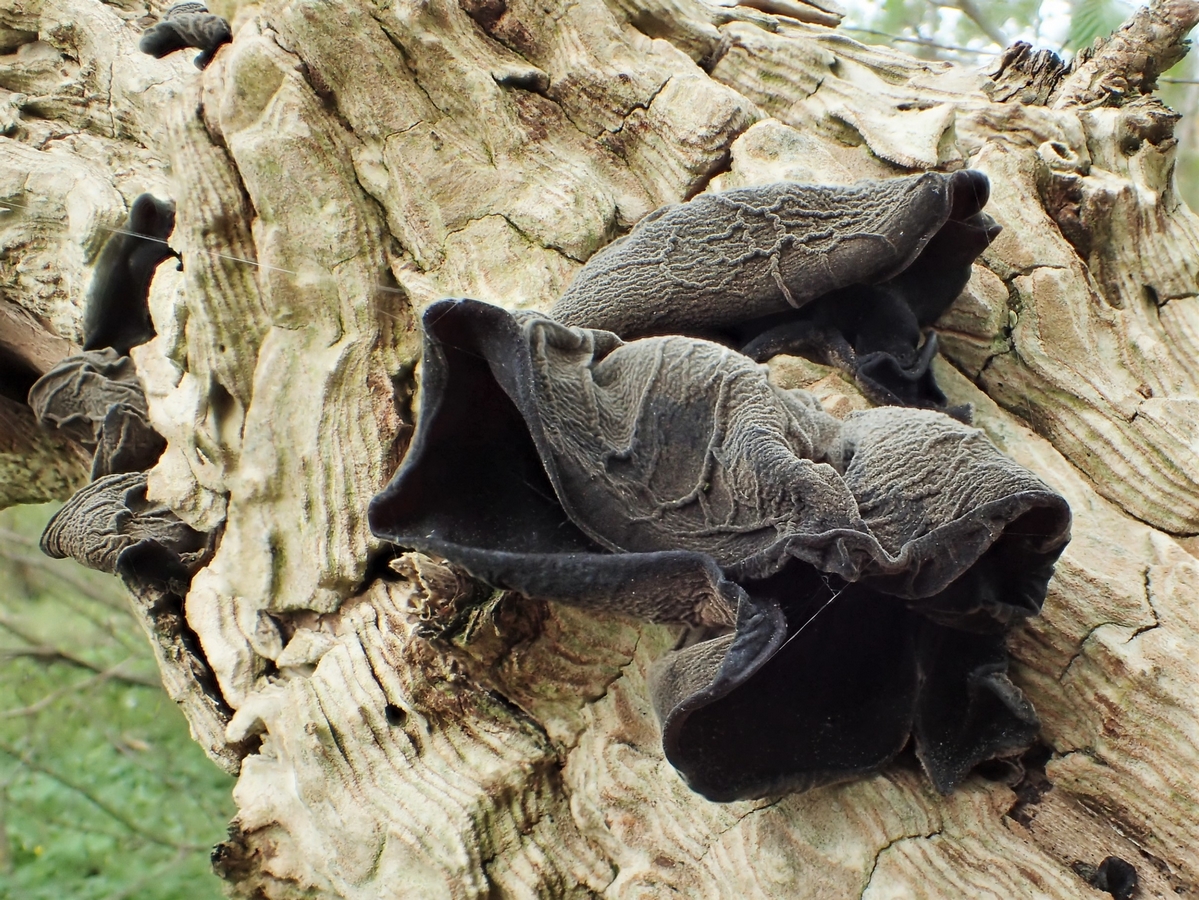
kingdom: Fungi
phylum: Basidiomycota
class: Agaricomycetes
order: Auriculariales
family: Auriculariaceae
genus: Auricularia
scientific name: Auricularia auricula-judae
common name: almindelig judasøre
